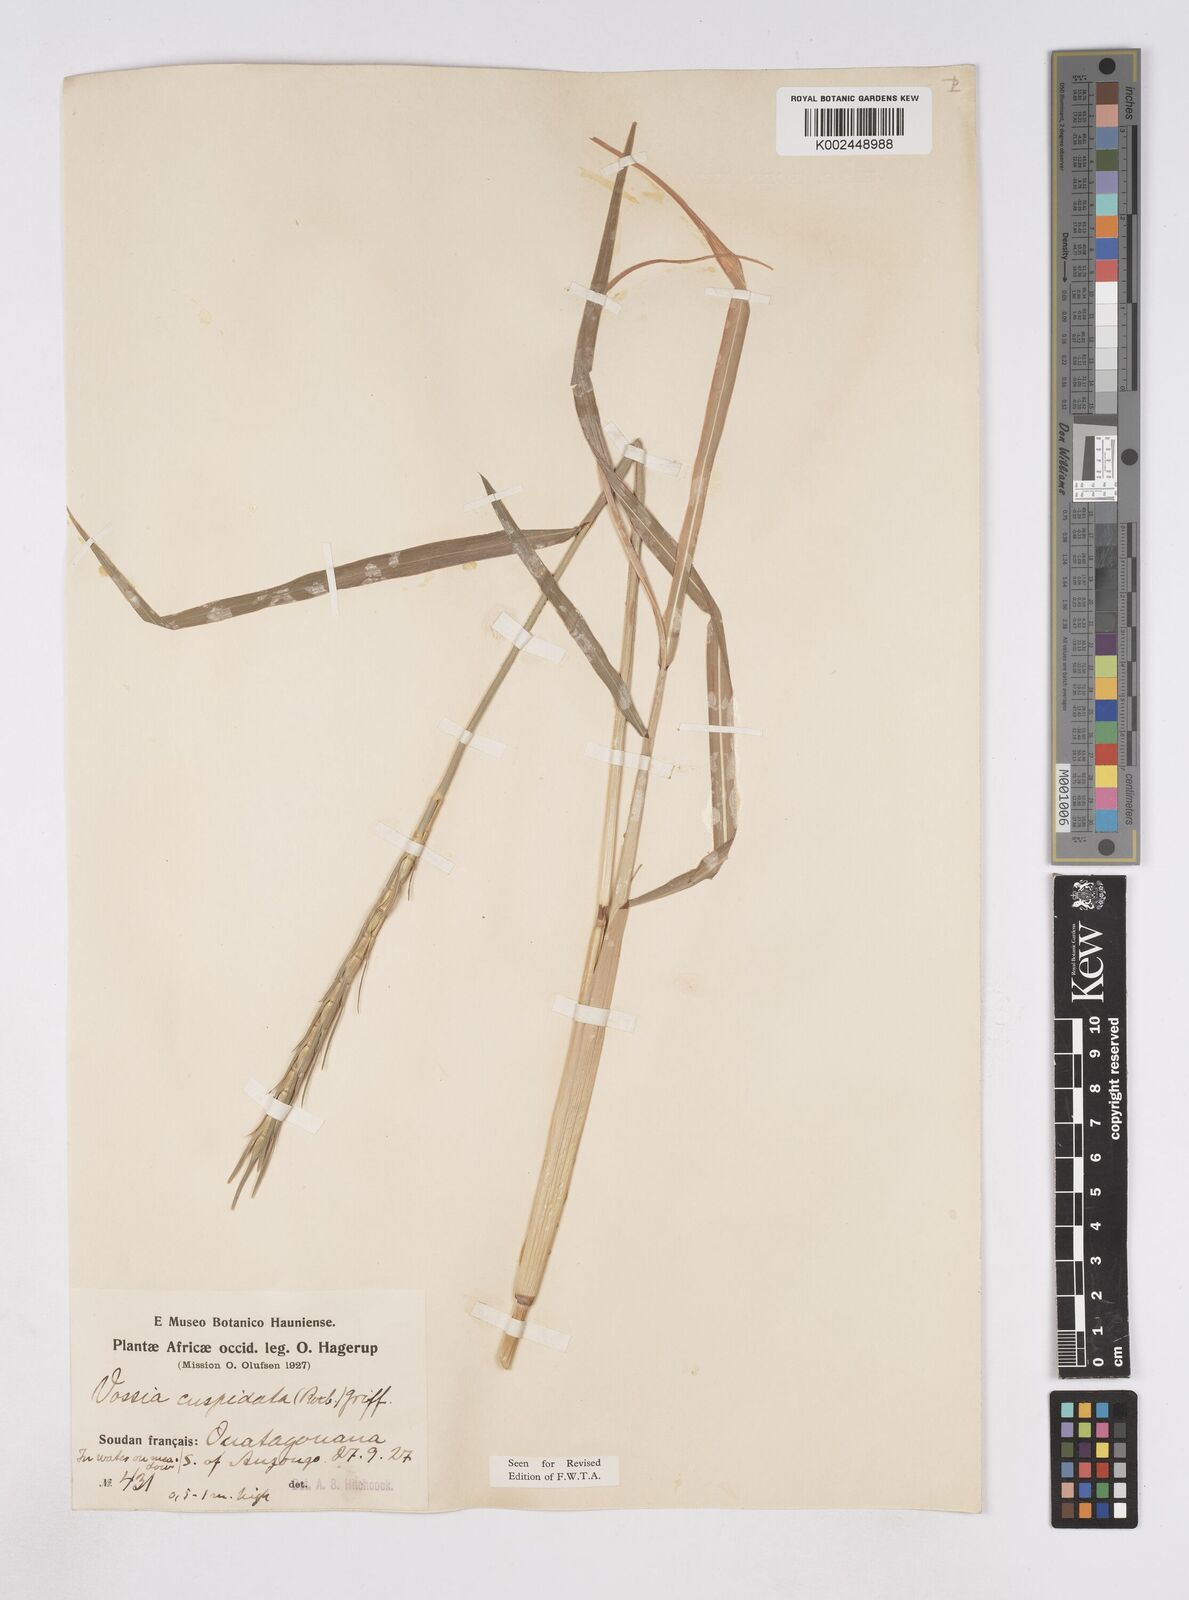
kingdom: Plantae
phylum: Tracheophyta
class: Liliopsida
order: Poales
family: Poaceae
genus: Vossia
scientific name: Vossia cuspidata
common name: Hippo grass
